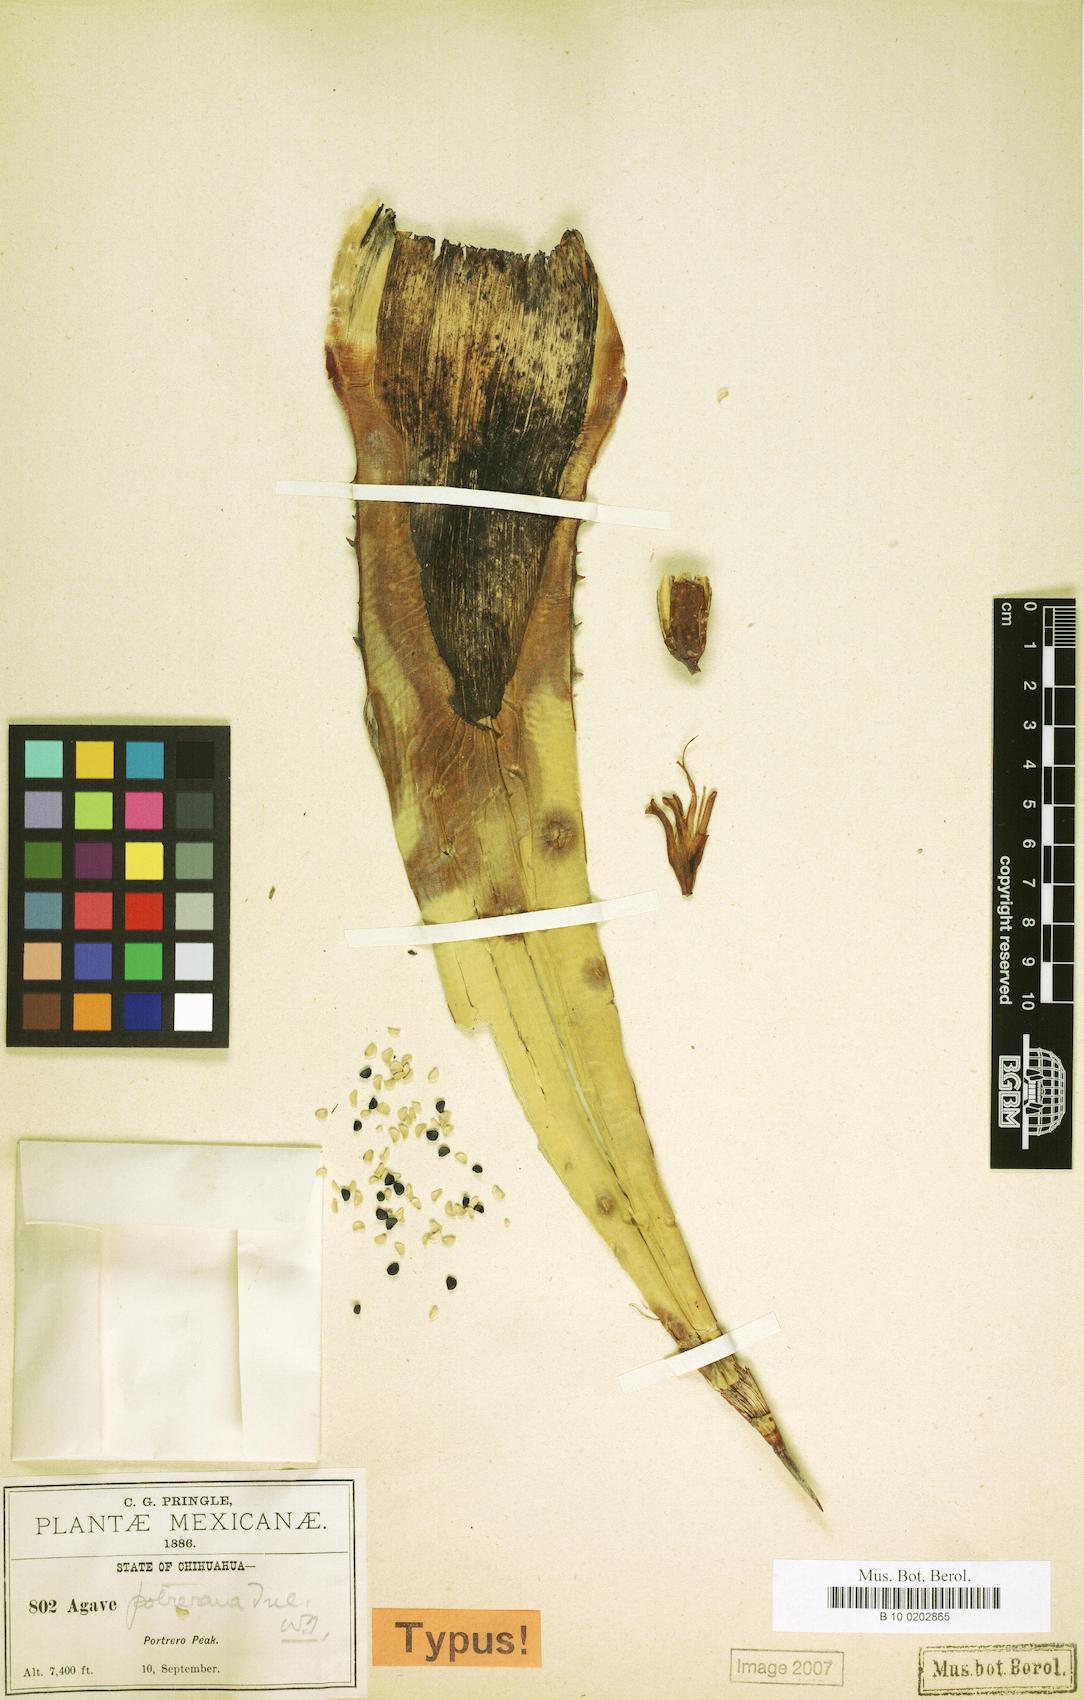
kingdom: Plantae
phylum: Tracheophyta
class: Liliopsida
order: Asparagales
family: Asparagaceae
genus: Agave
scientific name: Agave potrerana
